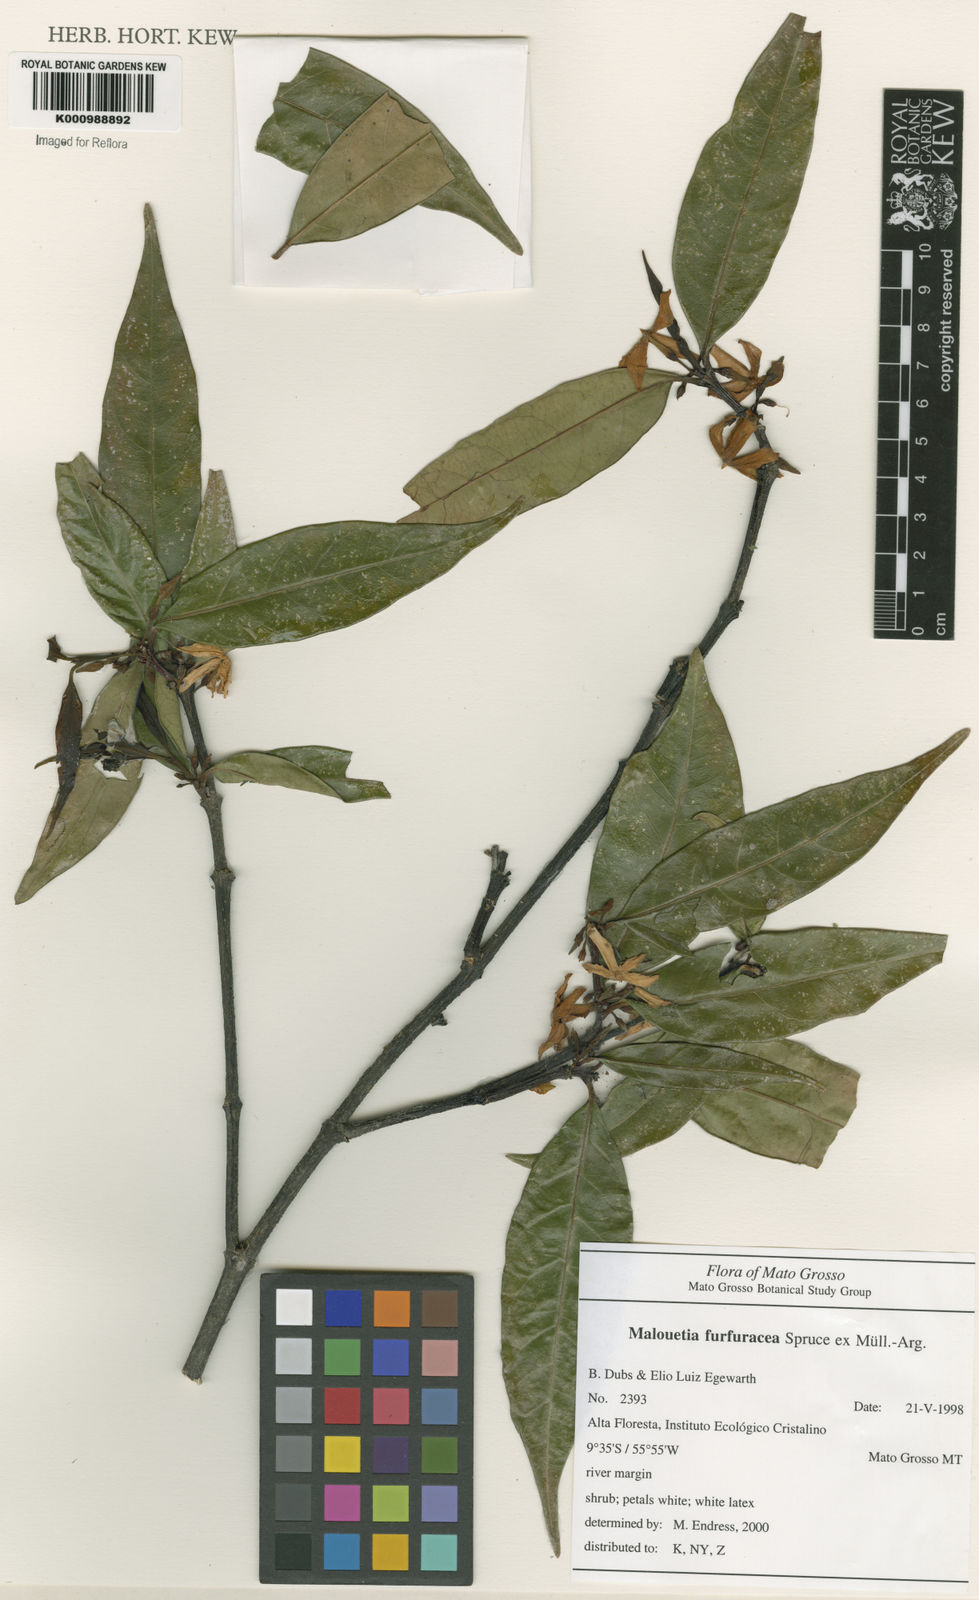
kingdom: Plantae
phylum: Tracheophyta
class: Magnoliopsida
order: Gentianales
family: Apocynaceae
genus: Malouetia
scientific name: Malouetia
